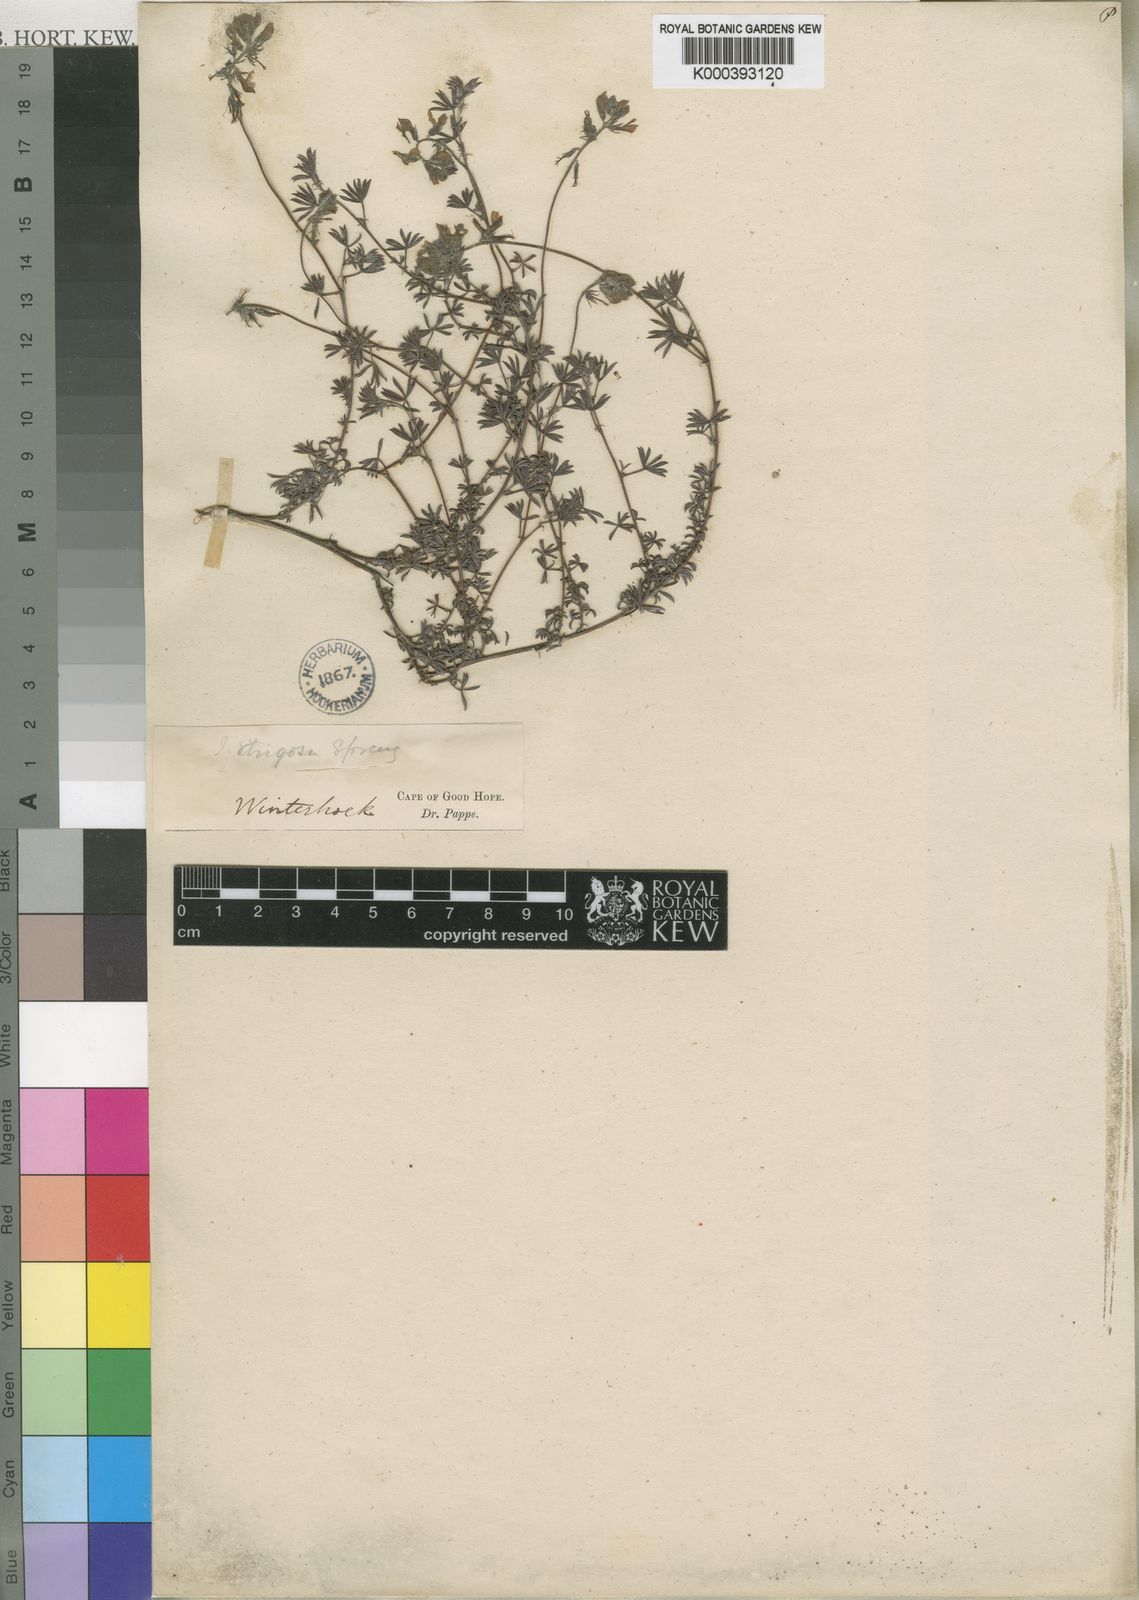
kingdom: Plantae
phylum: Tracheophyta
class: Magnoliopsida
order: Fabales
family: Fabaceae
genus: Indigofera
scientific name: Indigofera
